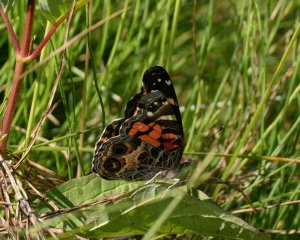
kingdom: Animalia
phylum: Arthropoda
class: Insecta
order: Lepidoptera
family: Nymphalidae
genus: Vanessa
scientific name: Vanessa virginiensis
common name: American Lady
